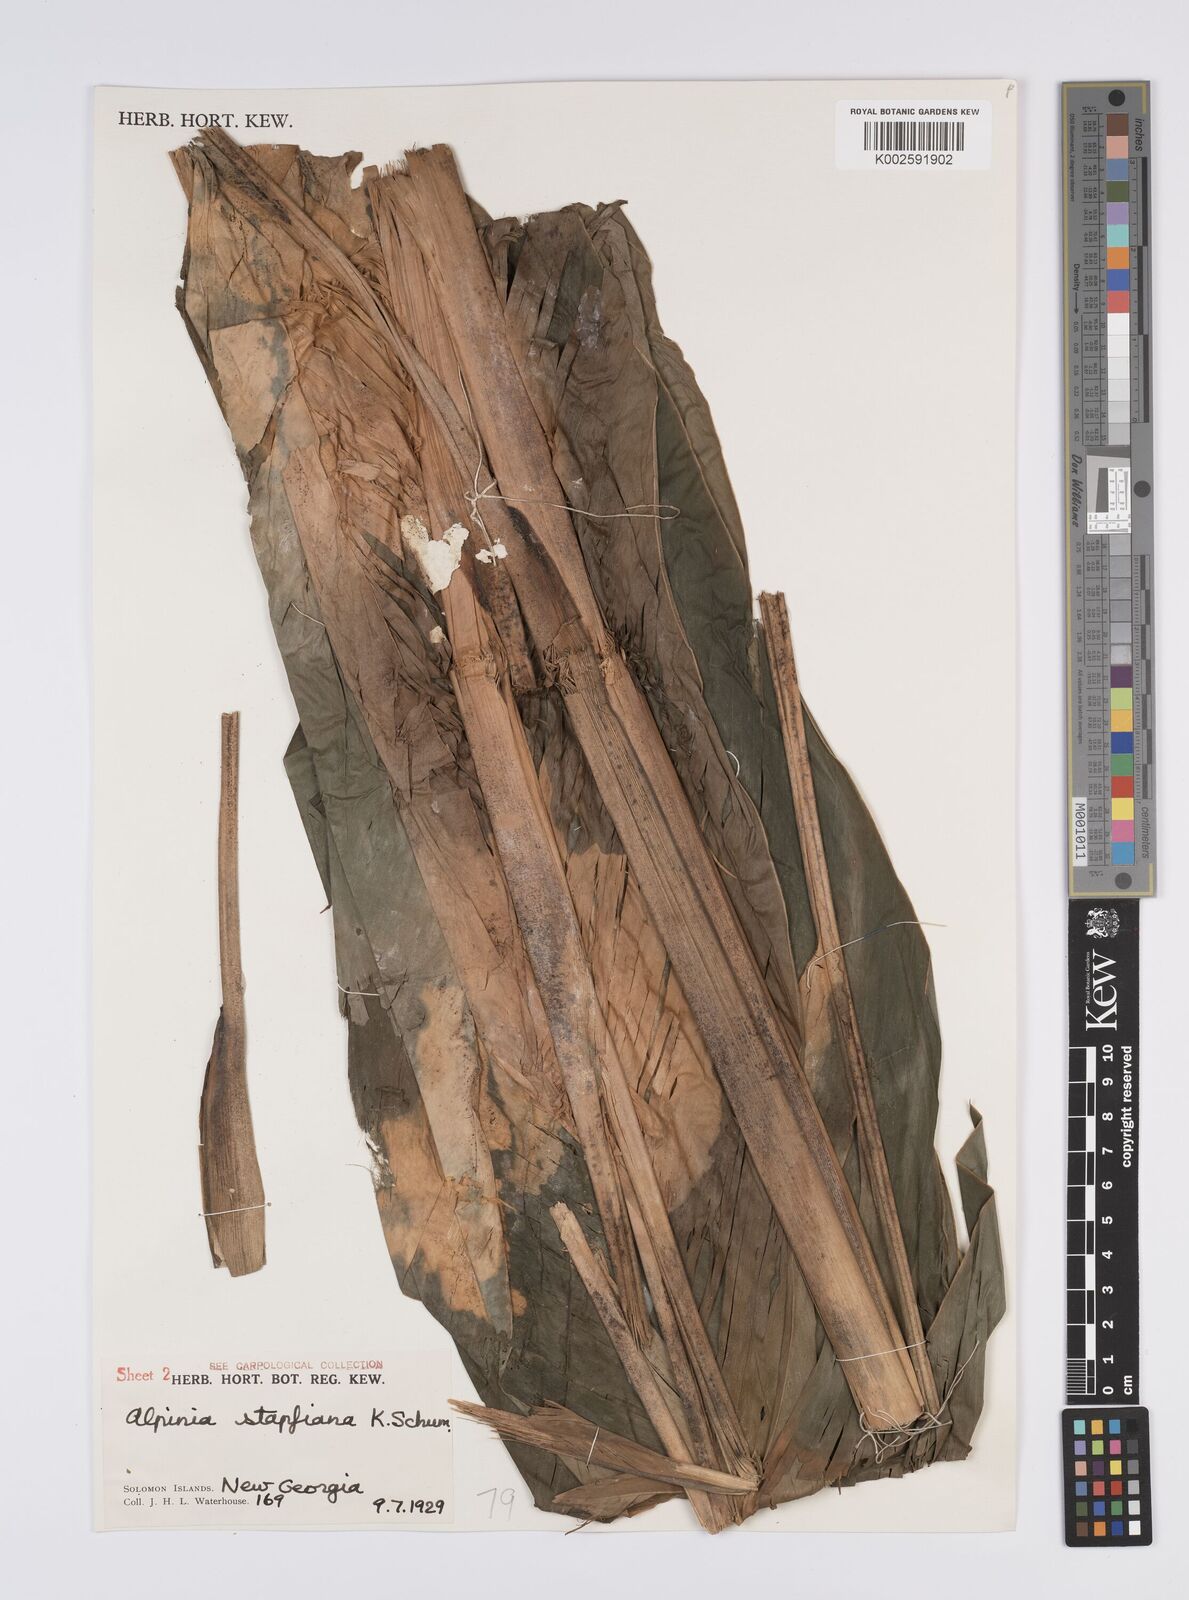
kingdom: Plantae
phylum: Tracheophyta
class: Liliopsida
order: Zingiberales
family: Zingiberaceae
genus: Alpinia
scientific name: Alpinia pulchra
